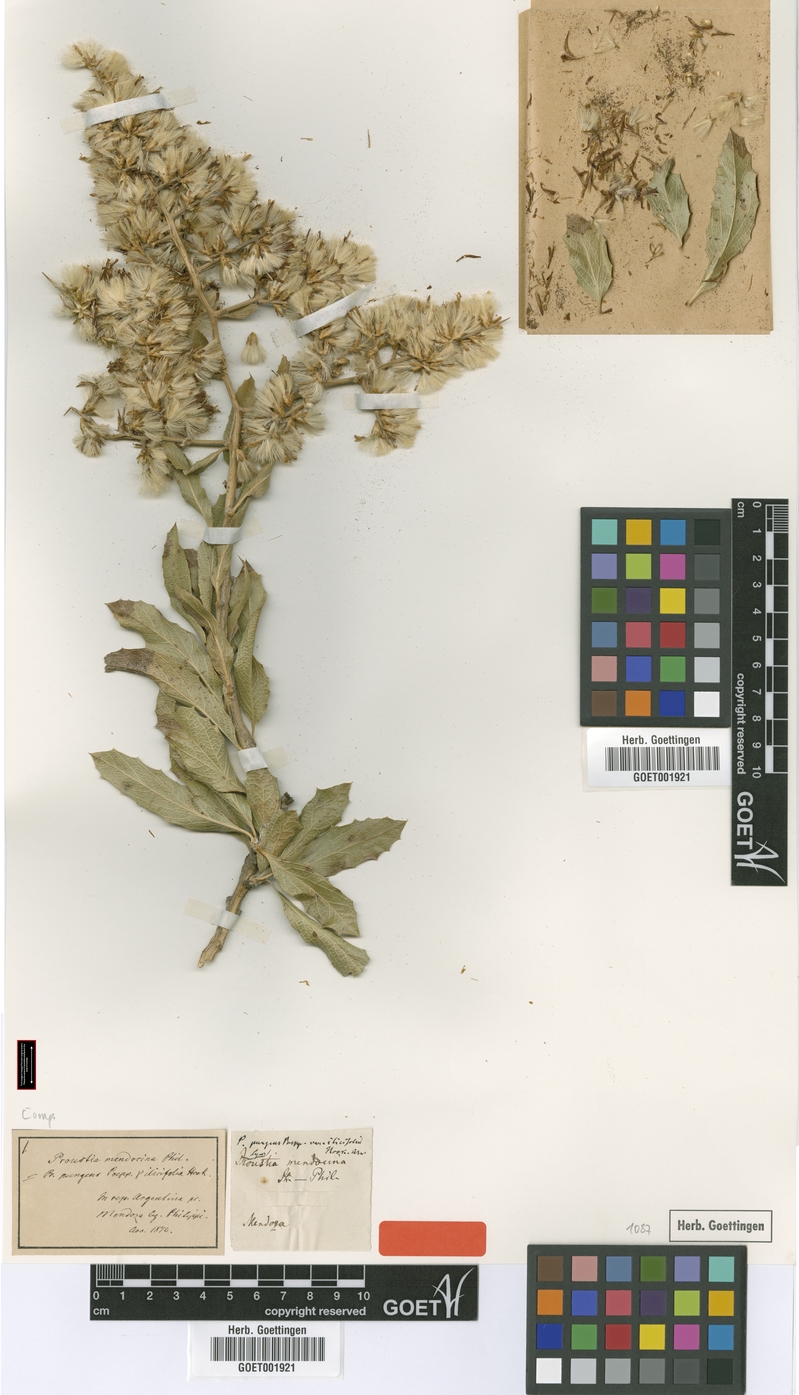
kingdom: Plantae
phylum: Tracheophyta
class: Magnoliopsida
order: Asterales
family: Asteraceae
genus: Proustia
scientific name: Proustia cuneifolia
